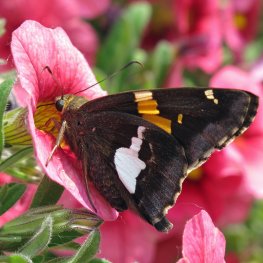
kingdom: Animalia
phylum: Arthropoda
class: Insecta
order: Lepidoptera
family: Hesperiidae
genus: Epargyreus
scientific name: Epargyreus clarus
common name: Silver-spotted Skipper
